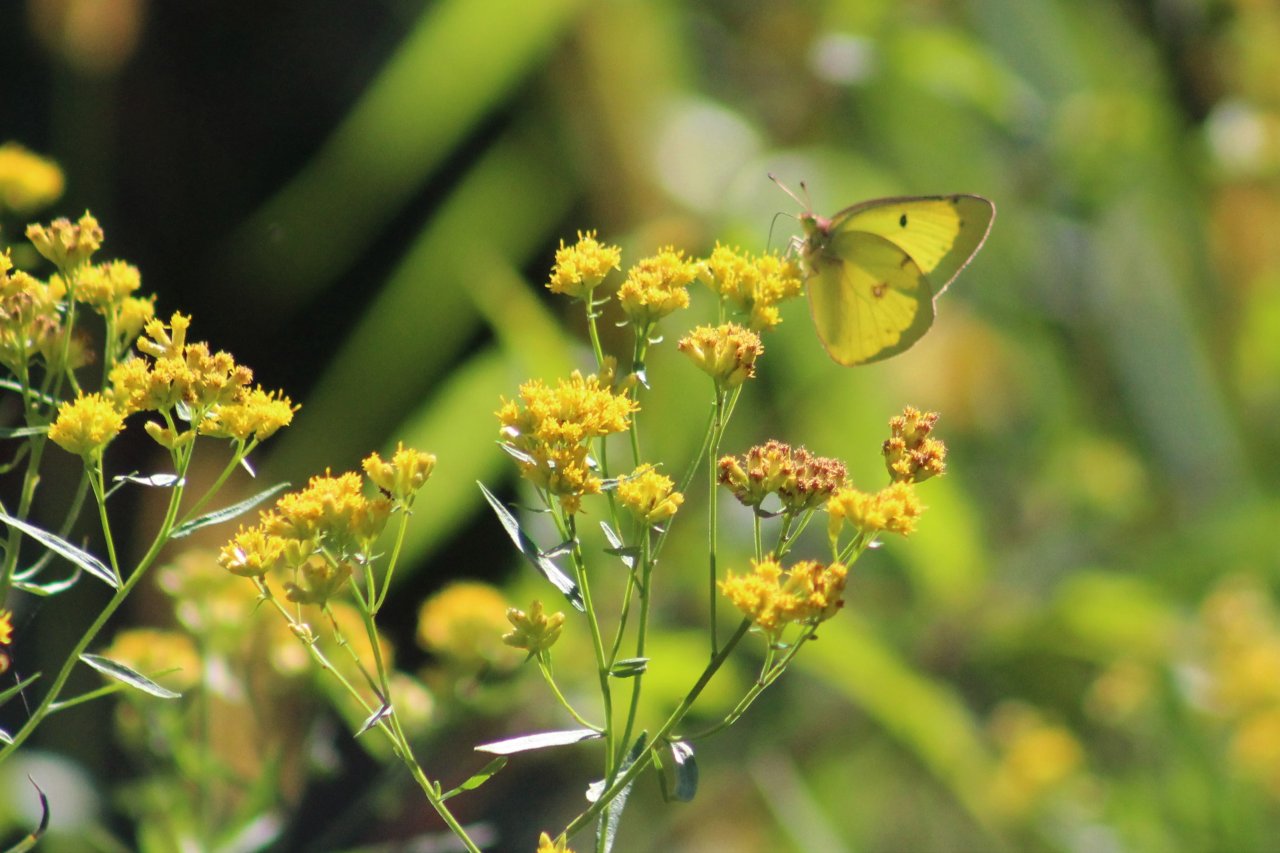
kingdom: Animalia
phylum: Arthropoda
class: Insecta
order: Lepidoptera
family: Pieridae
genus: Colias
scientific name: Colias philodice
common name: Clouded Sulphur
